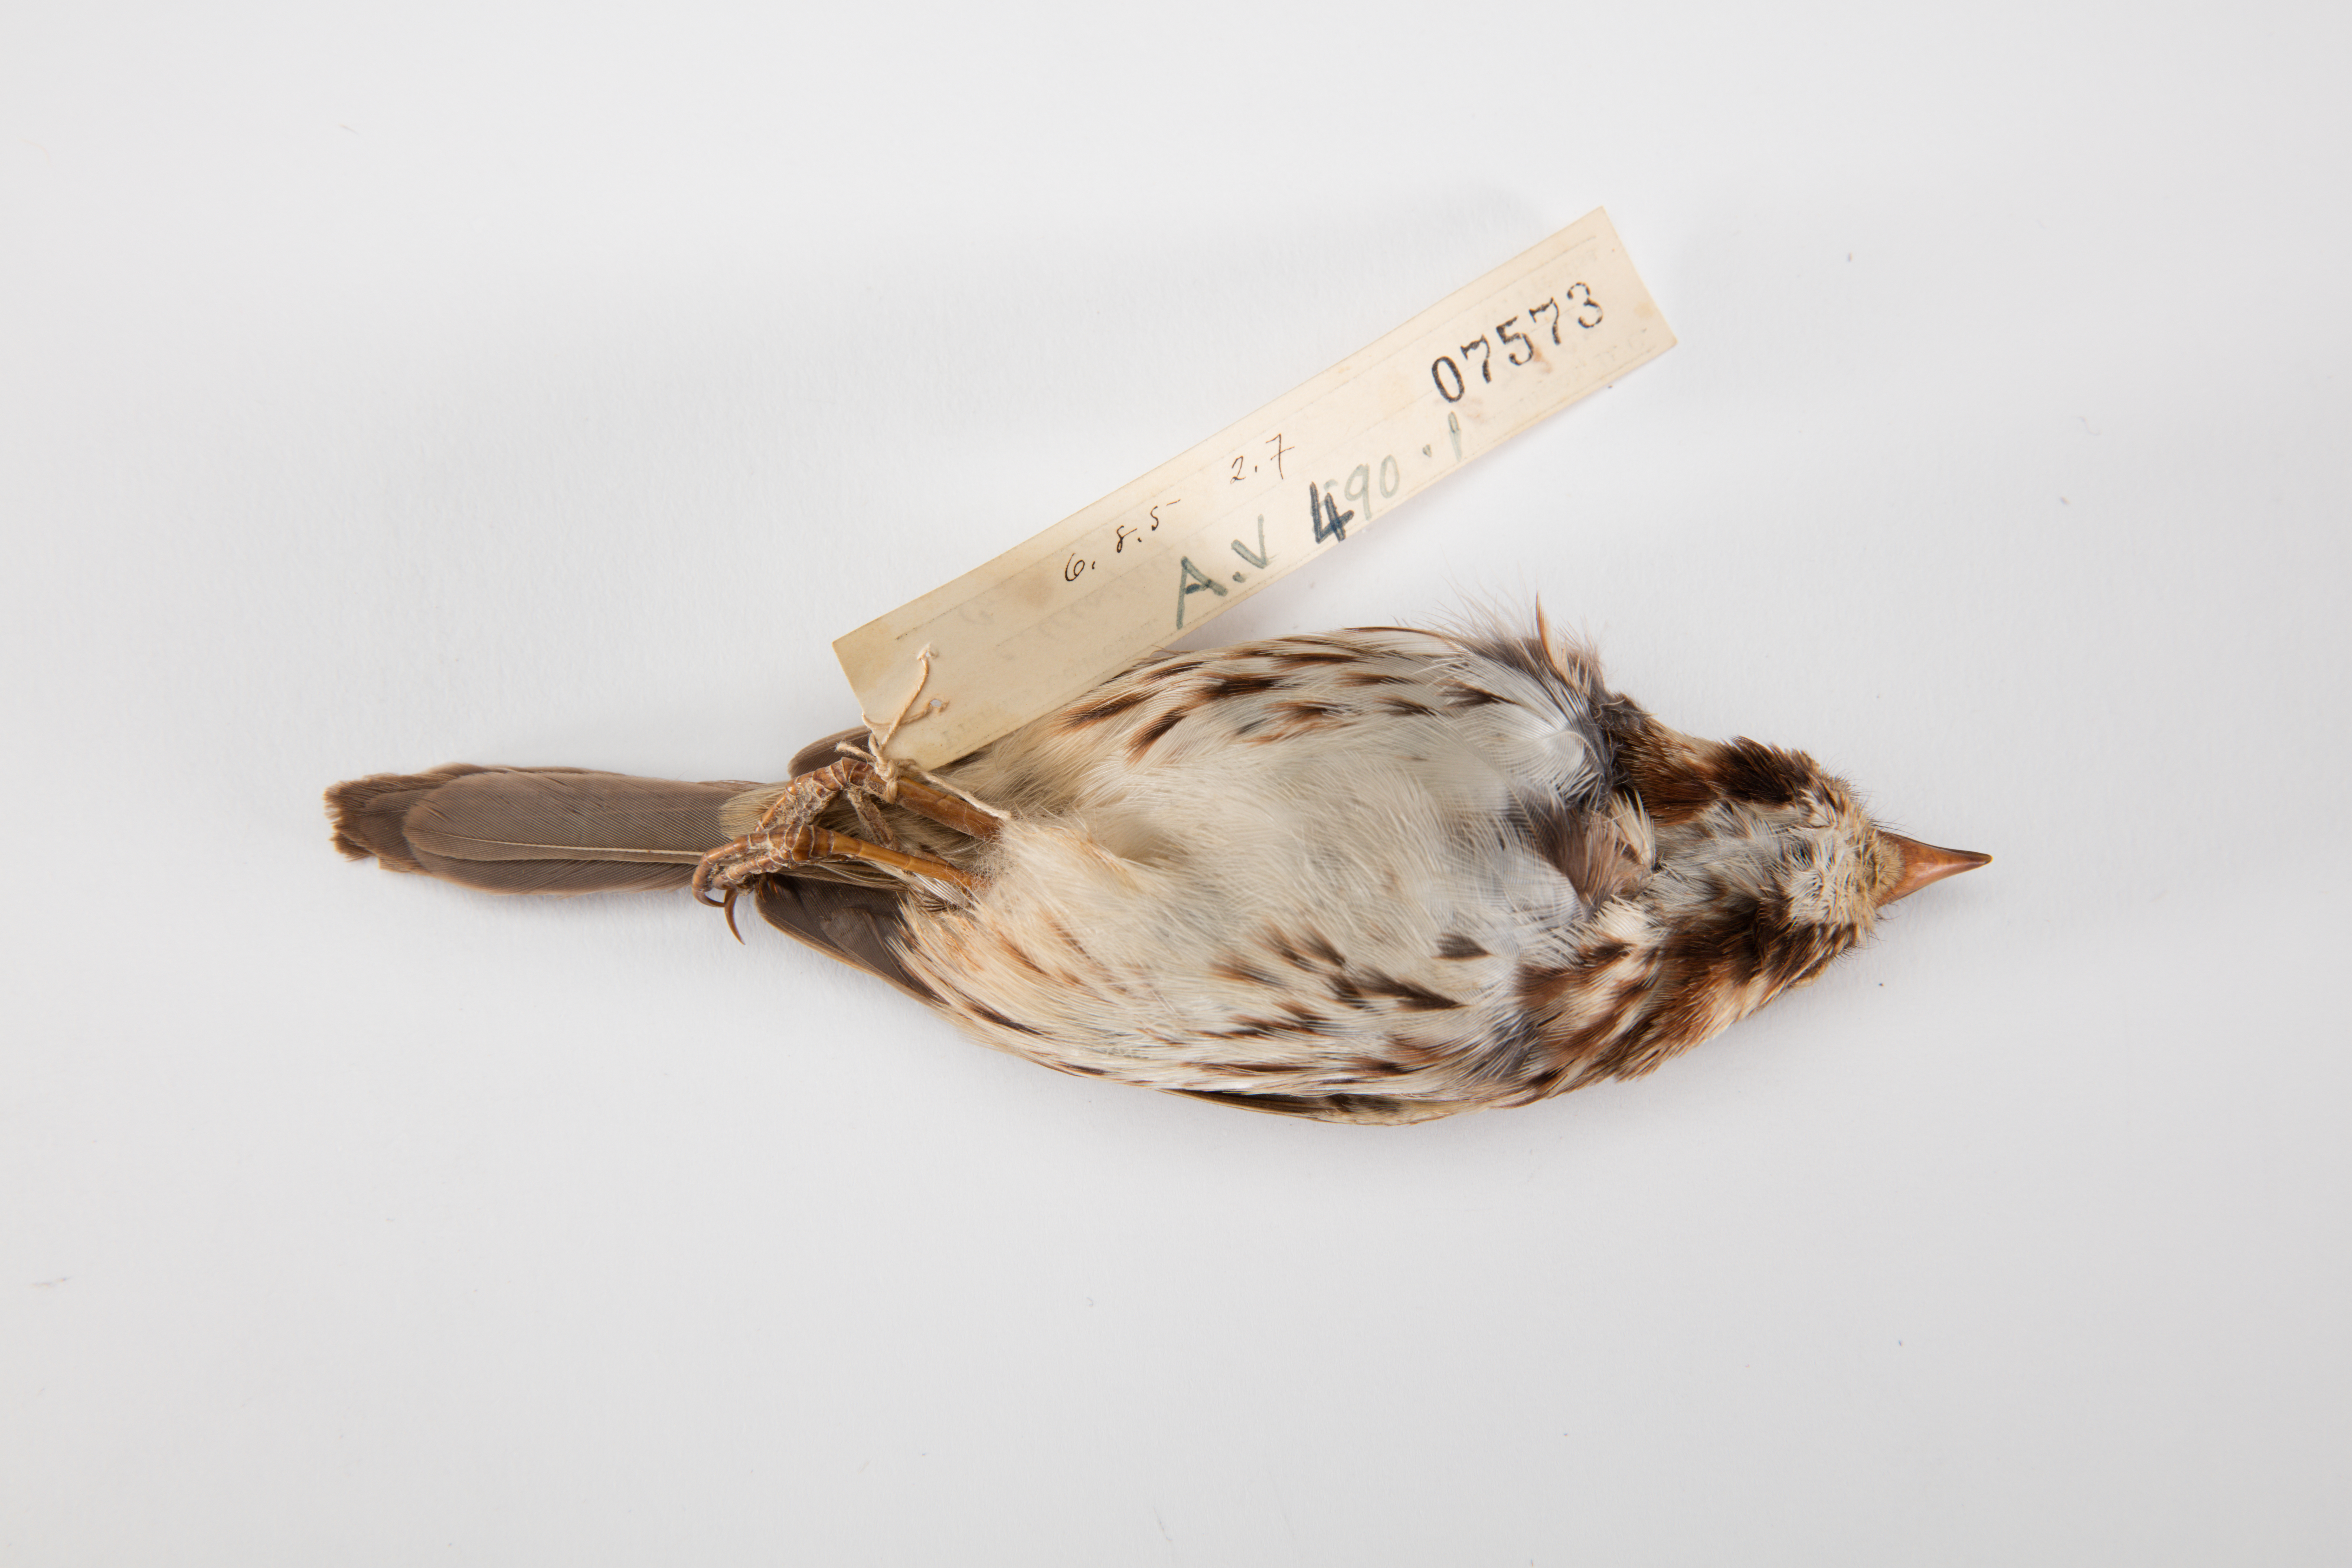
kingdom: Animalia
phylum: Chordata
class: Aves
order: Passeriformes
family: Passerellidae
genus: Melospiza
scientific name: Melospiza melodia
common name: Song sparrow
